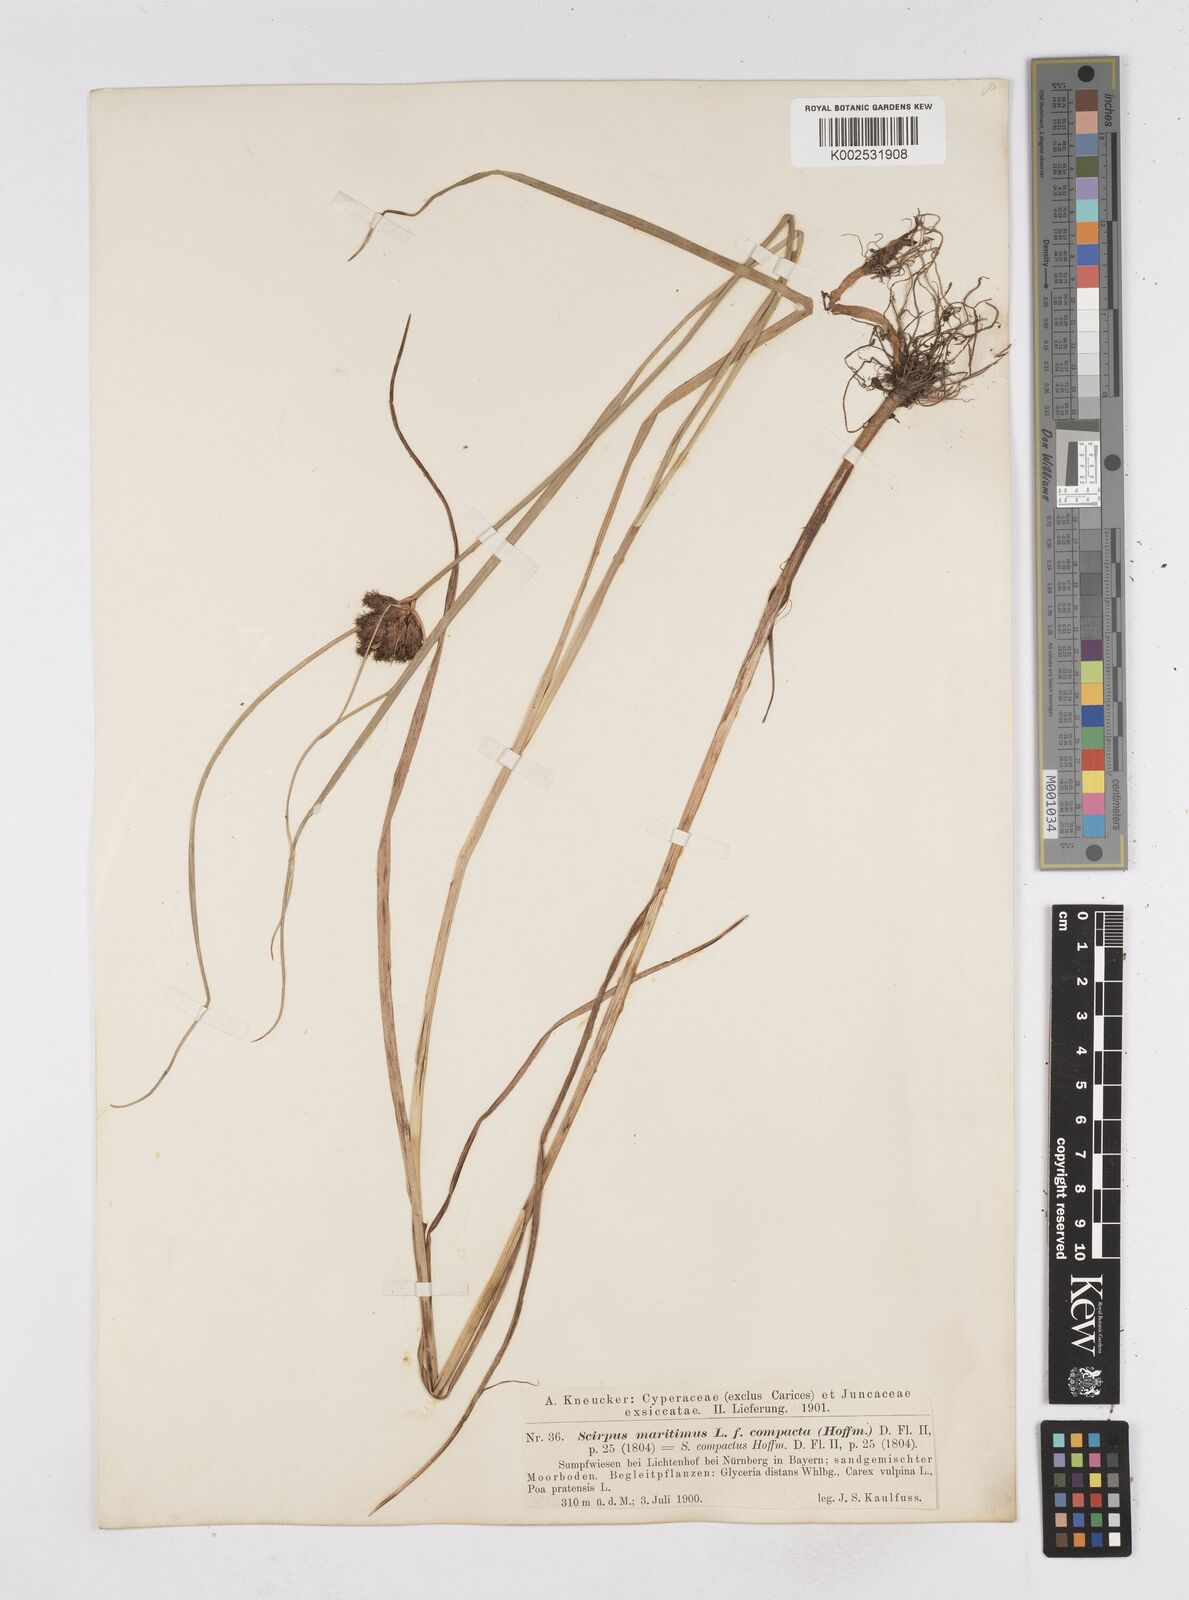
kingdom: Plantae
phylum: Tracheophyta
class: Liliopsida
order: Poales
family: Cyperaceae
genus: Bolboschoenus
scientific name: Bolboschoenus maritimus
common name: Sea club-rush
